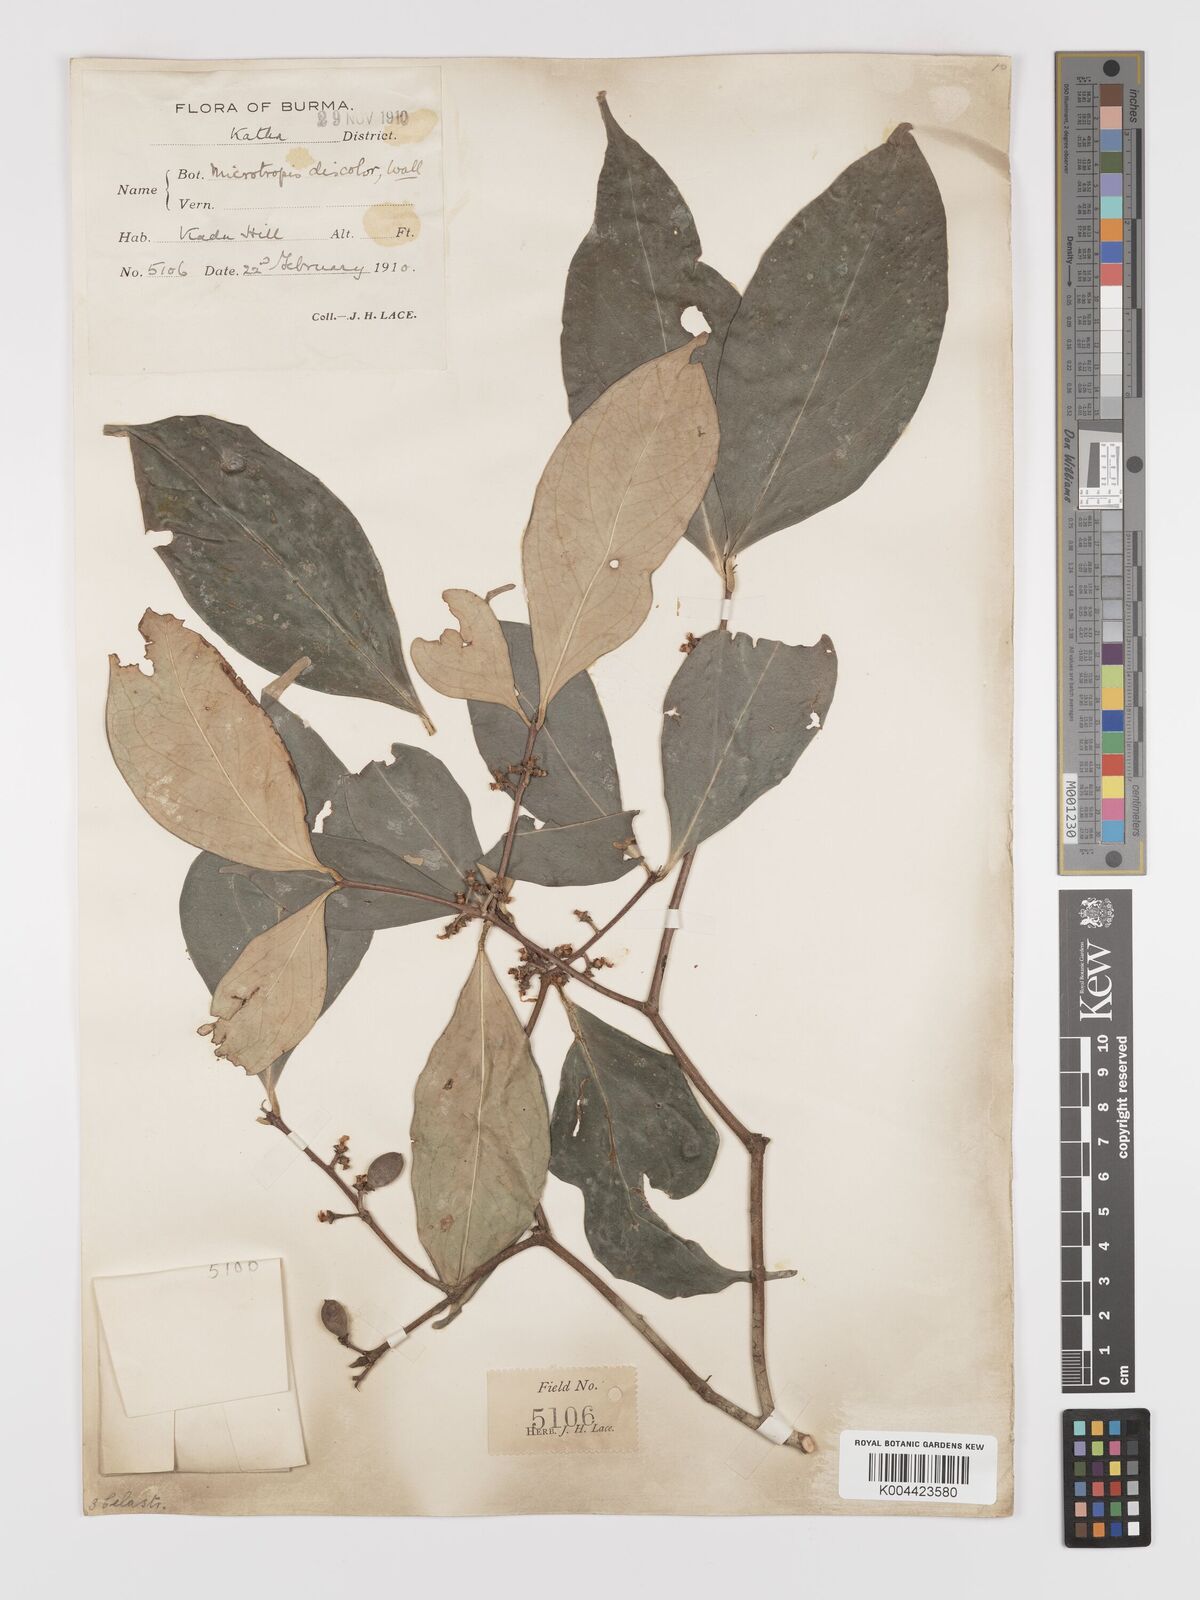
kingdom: Plantae
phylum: Tracheophyta
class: Magnoliopsida
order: Celastrales
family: Celastraceae
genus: Microtropis
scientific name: Microtropis discolor
